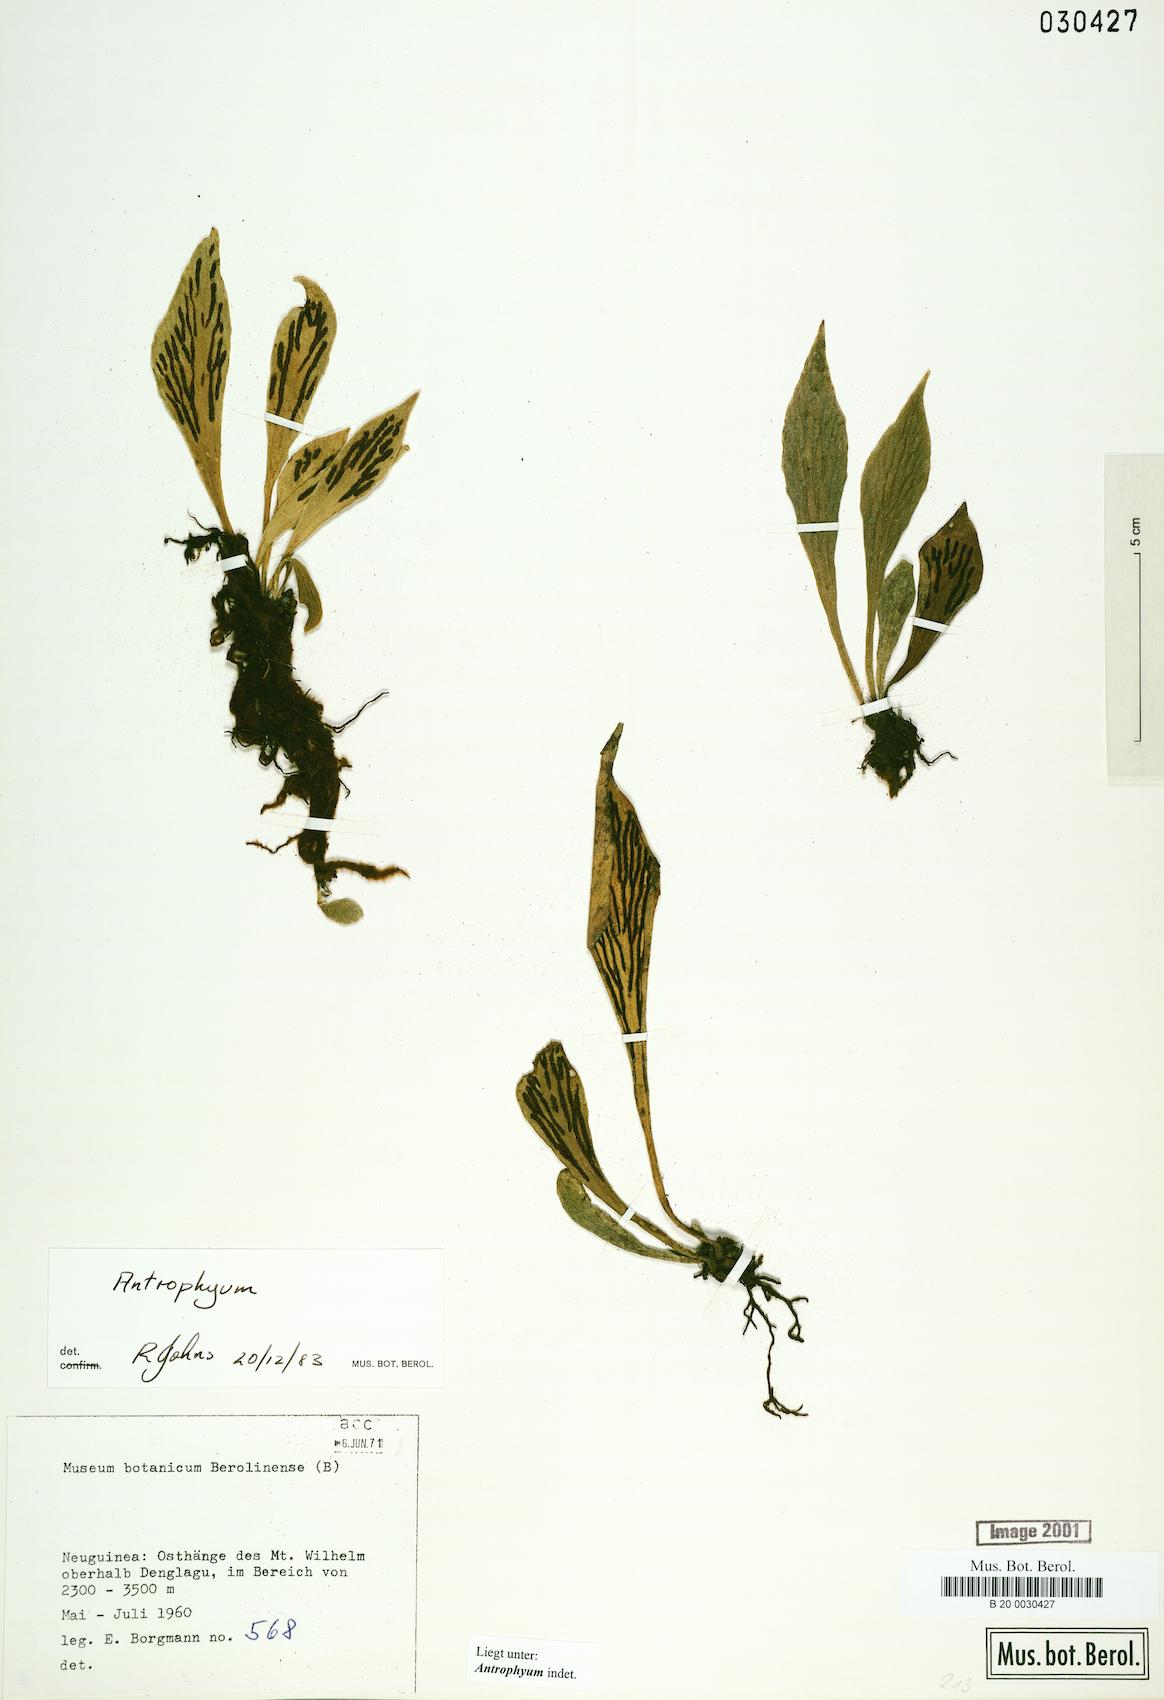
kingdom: Plantae
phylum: Tracheophyta
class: Polypodiopsida
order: Polypodiales
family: Pteridaceae
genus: Antrophyum
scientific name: Antrophyum
